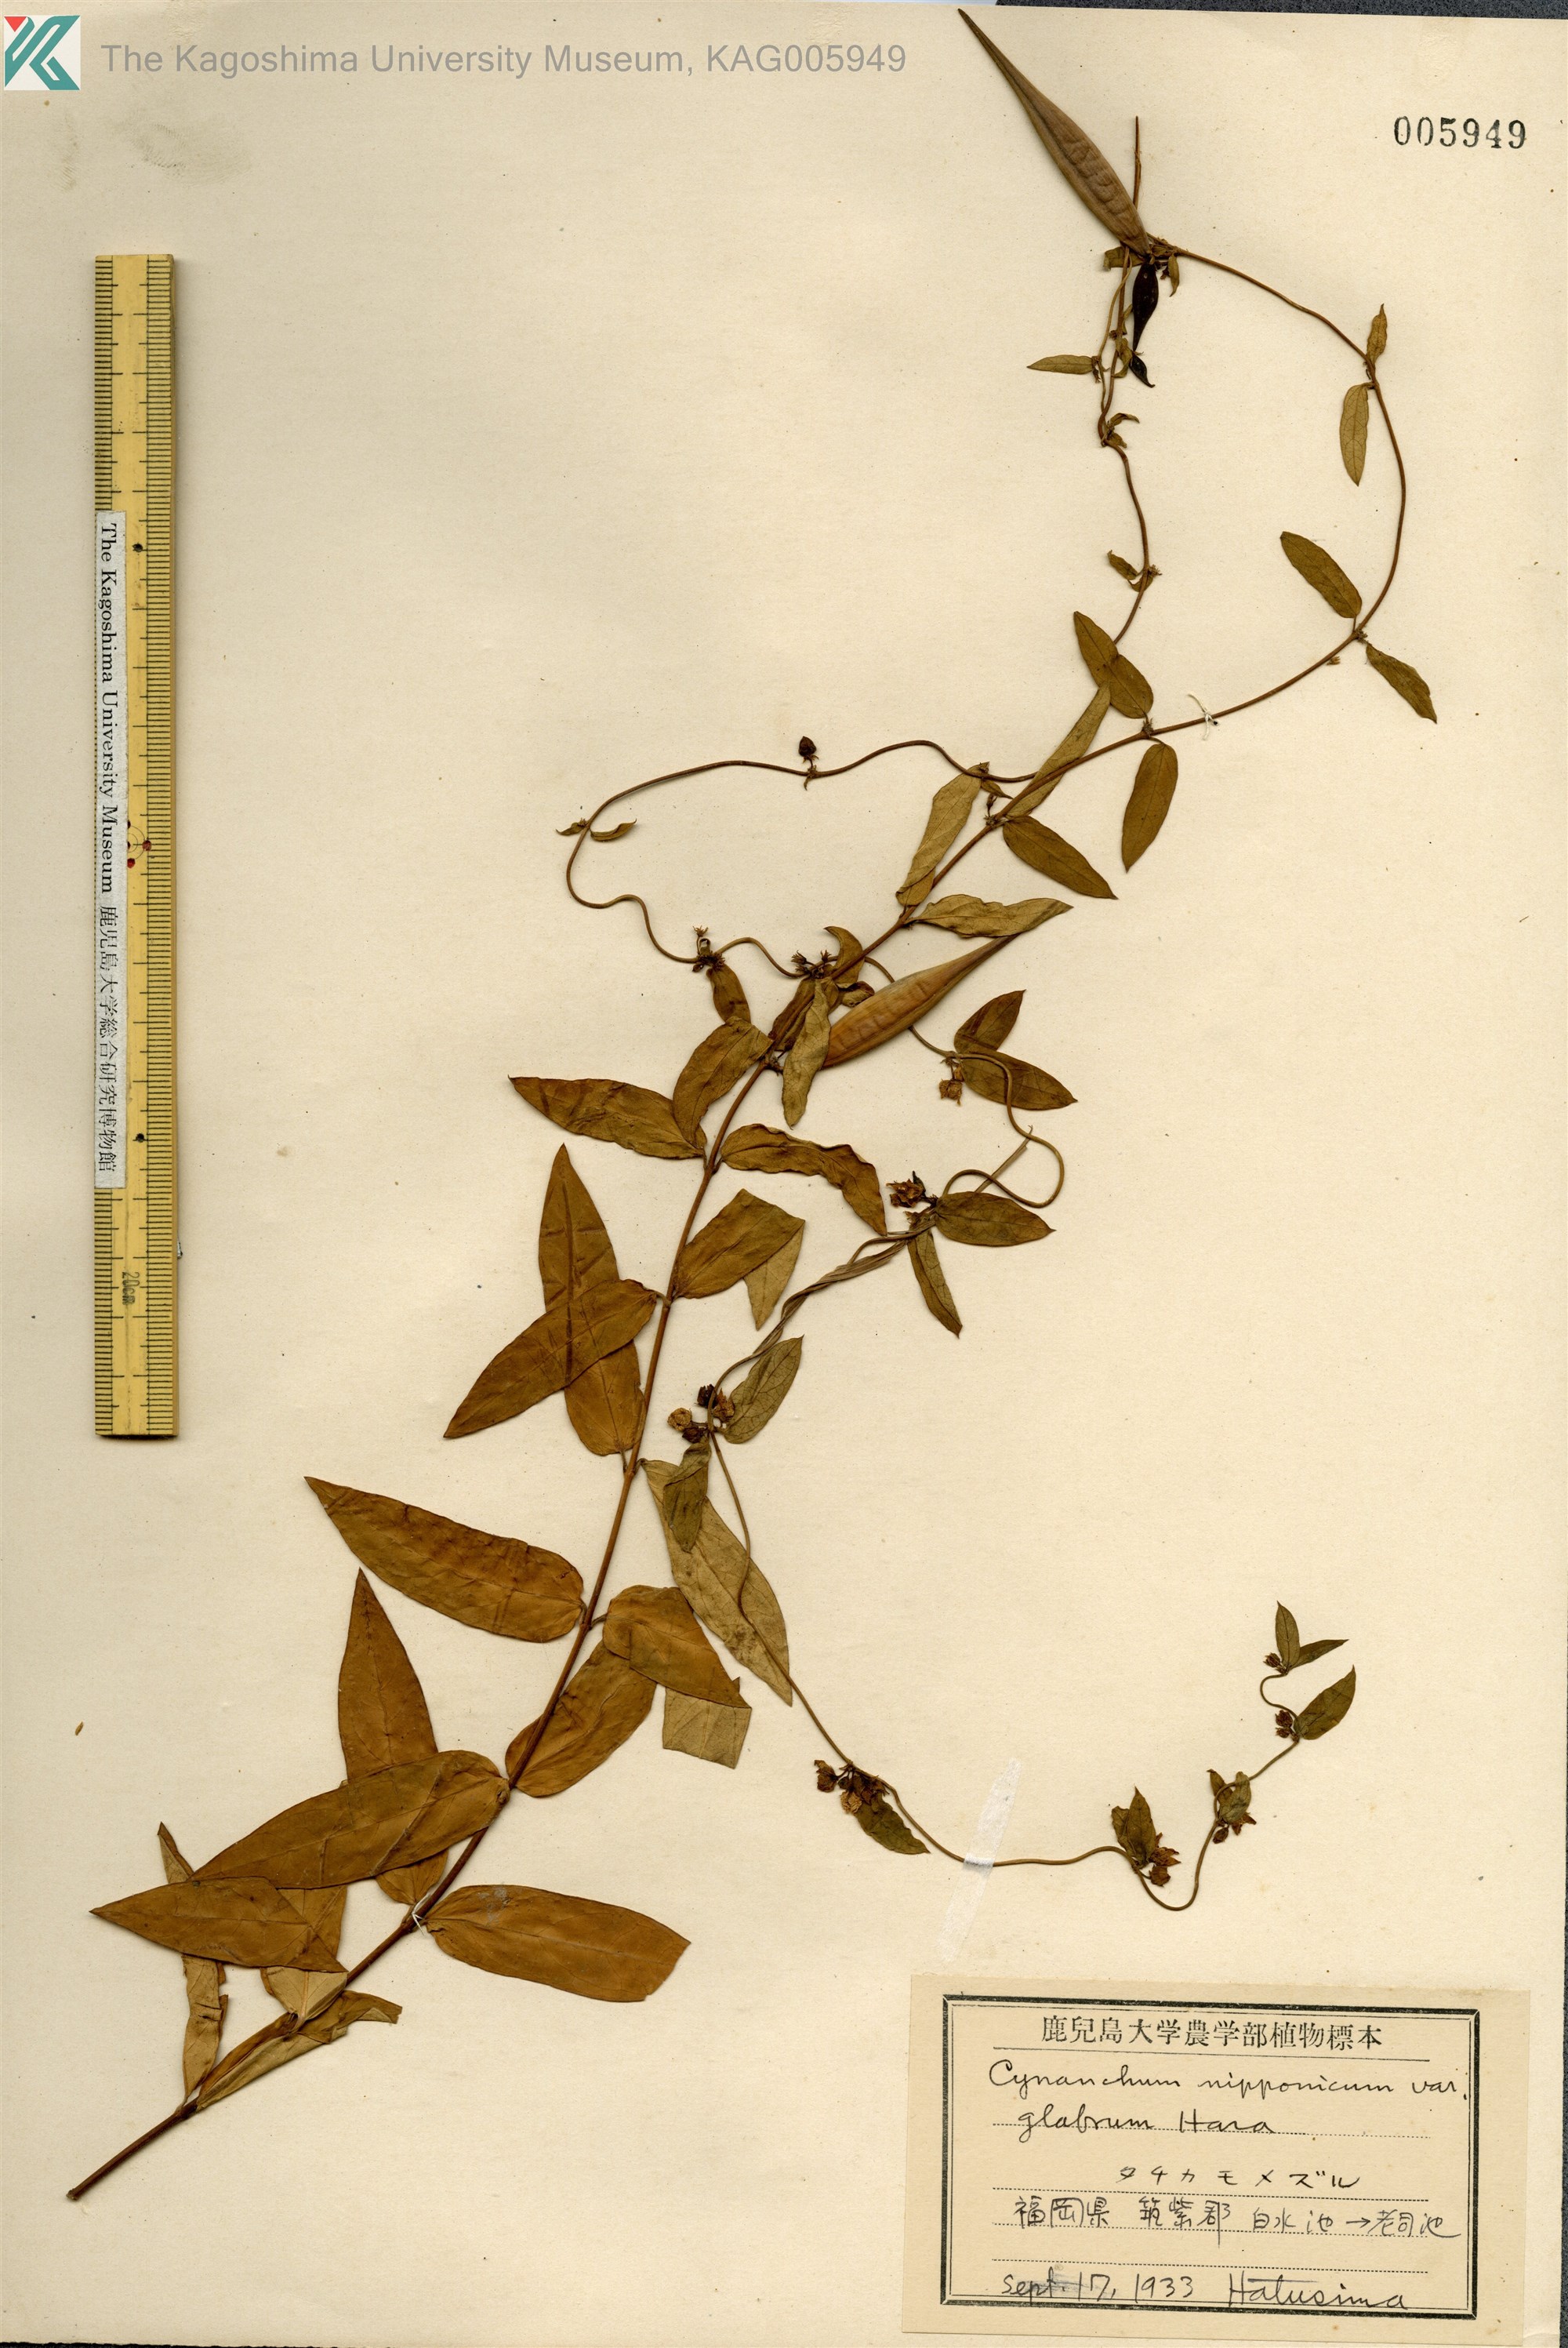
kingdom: Plantae
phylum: Tracheophyta
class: Magnoliopsida
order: Gentianales
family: Apocynaceae
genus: Vincetoxicum
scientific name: Vincetoxicum nipponicum
